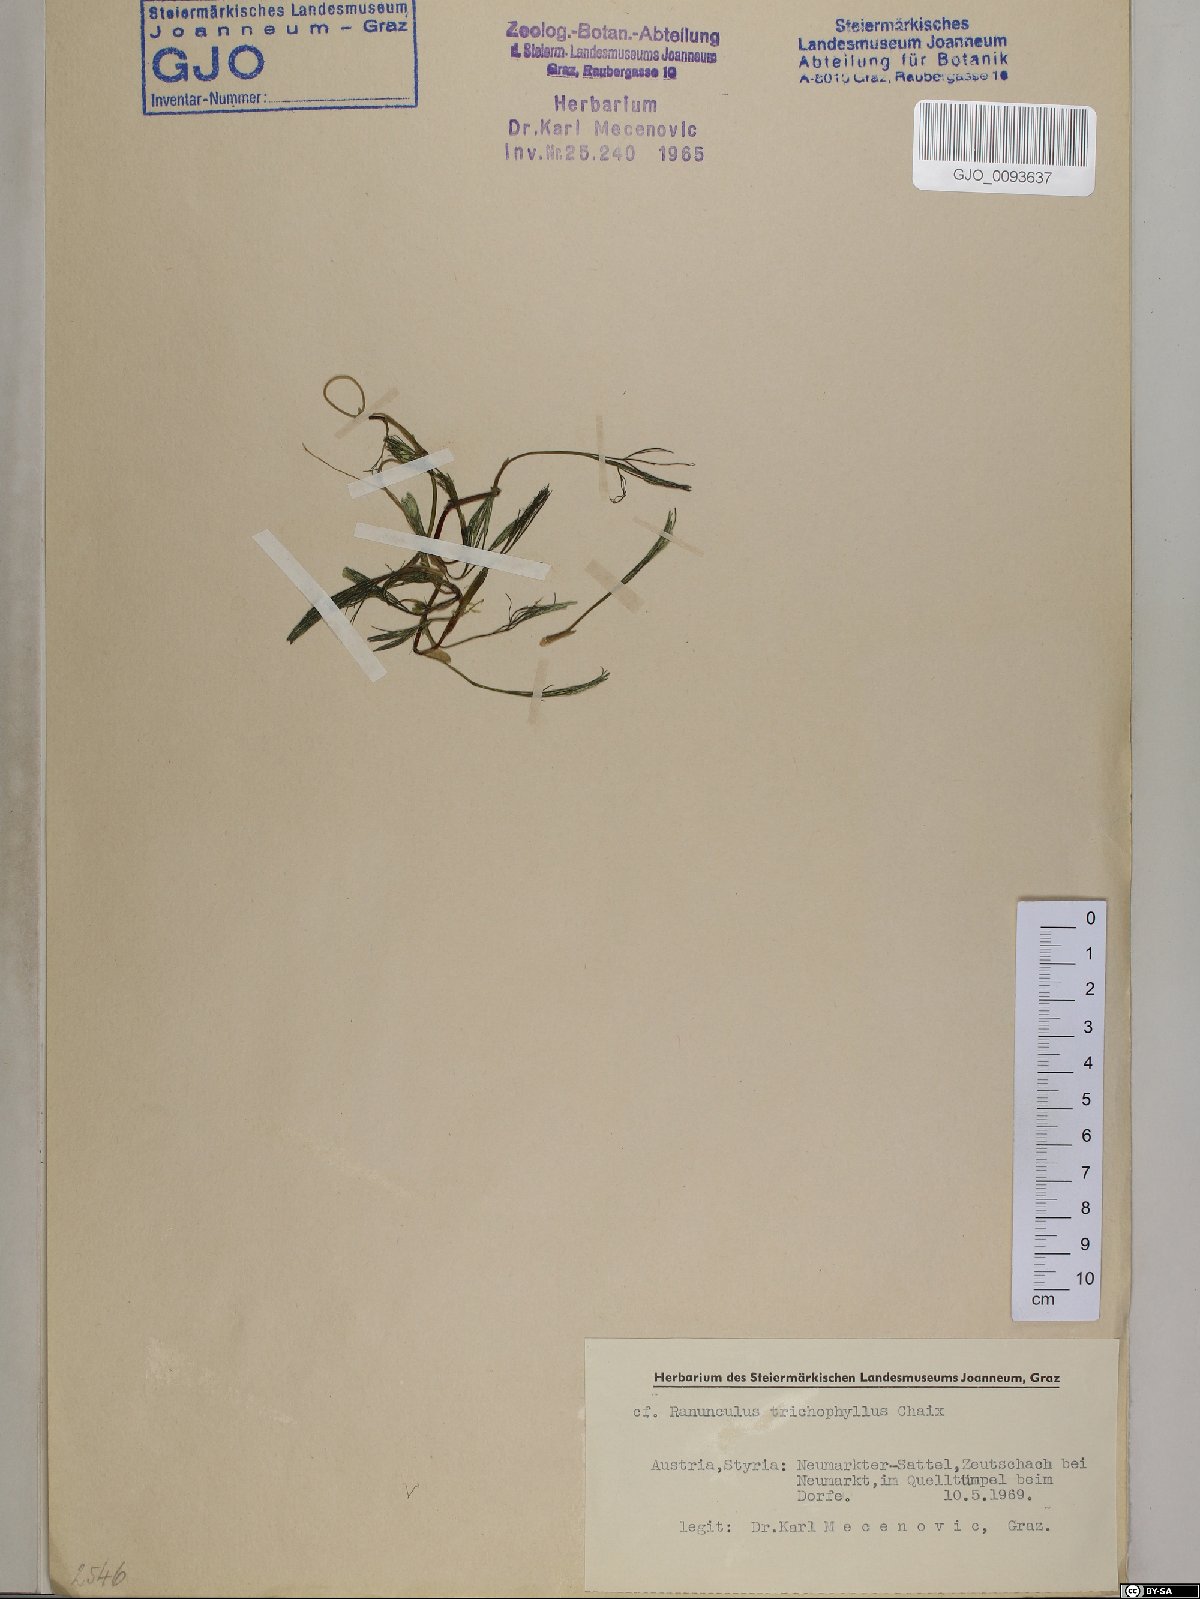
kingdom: Plantae
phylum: Tracheophyta
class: Magnoliopsida
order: Ranunculales
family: Ranunculaceae
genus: Ranunculus
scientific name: Ranunculus trichophyllus
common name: Thread-leaved water-crowfoot
